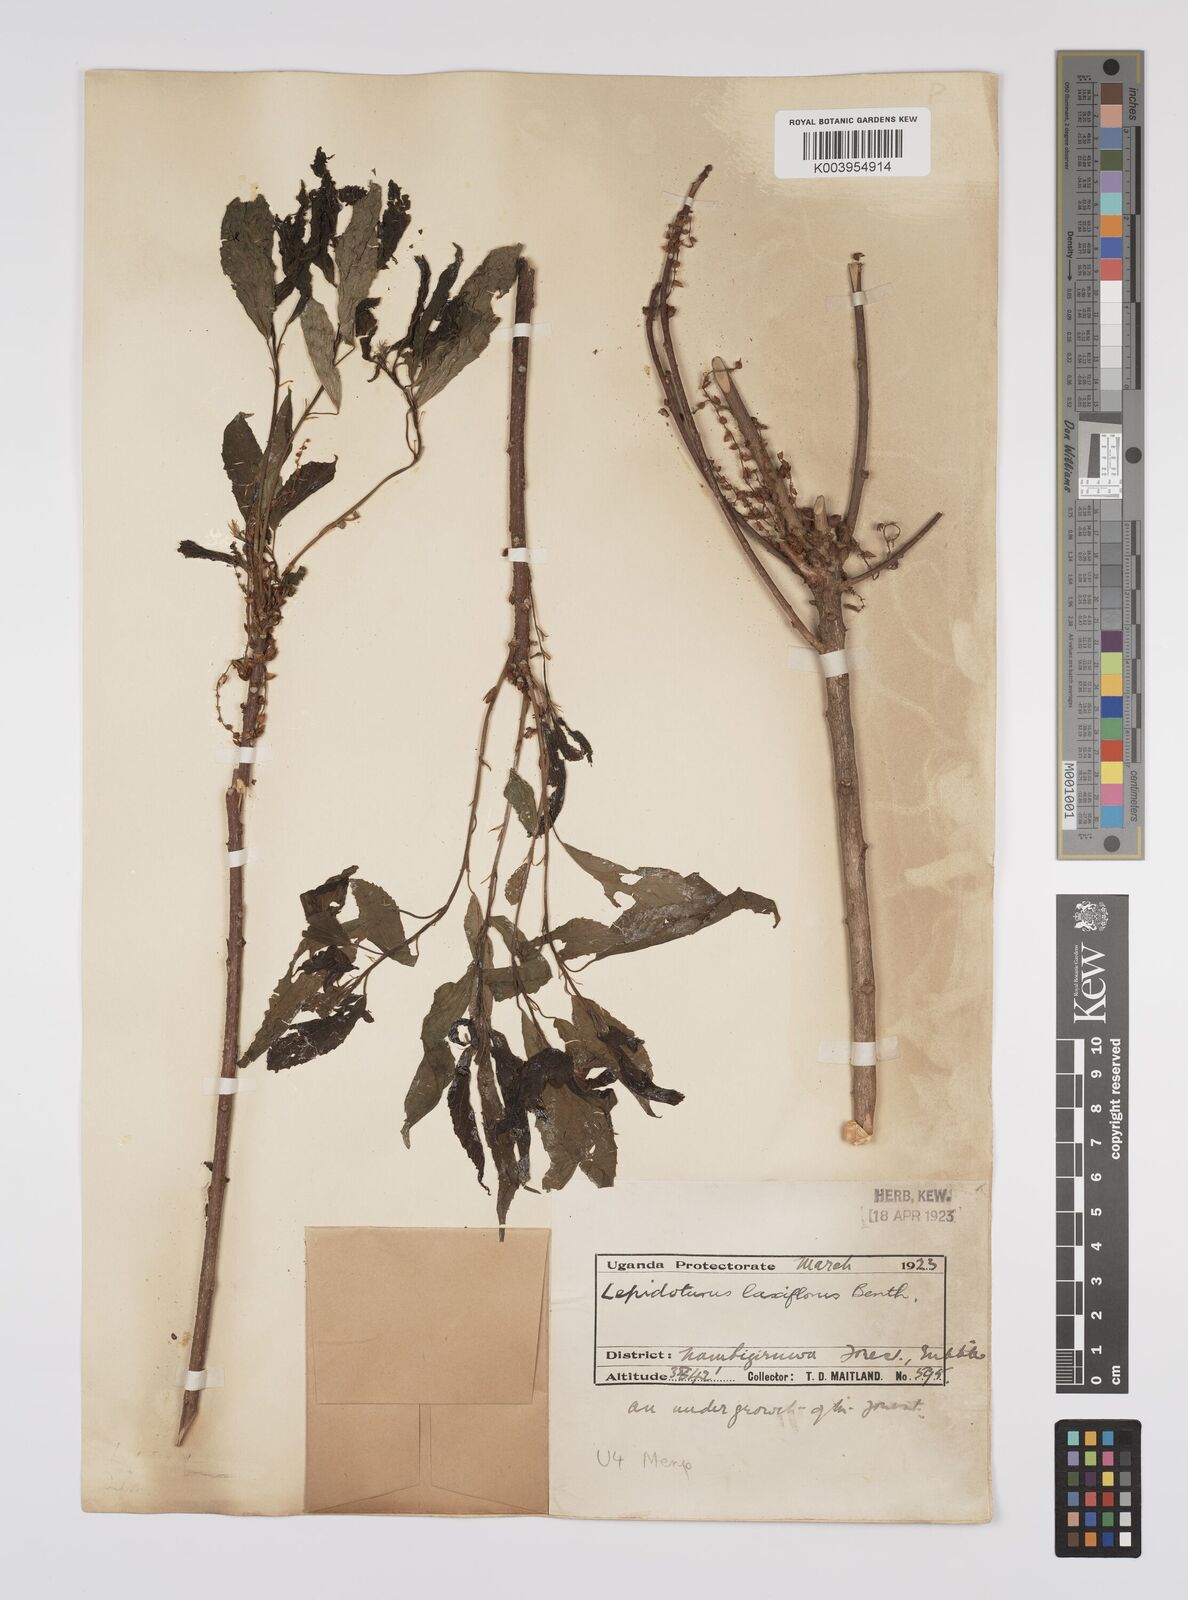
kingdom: Plantae
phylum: Tracheophyta
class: Magnoliopsida
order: Malpighiales
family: Euphorbiaceae
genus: Alchornea
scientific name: Alchornea laxiflora
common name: Lowveld bead-string
